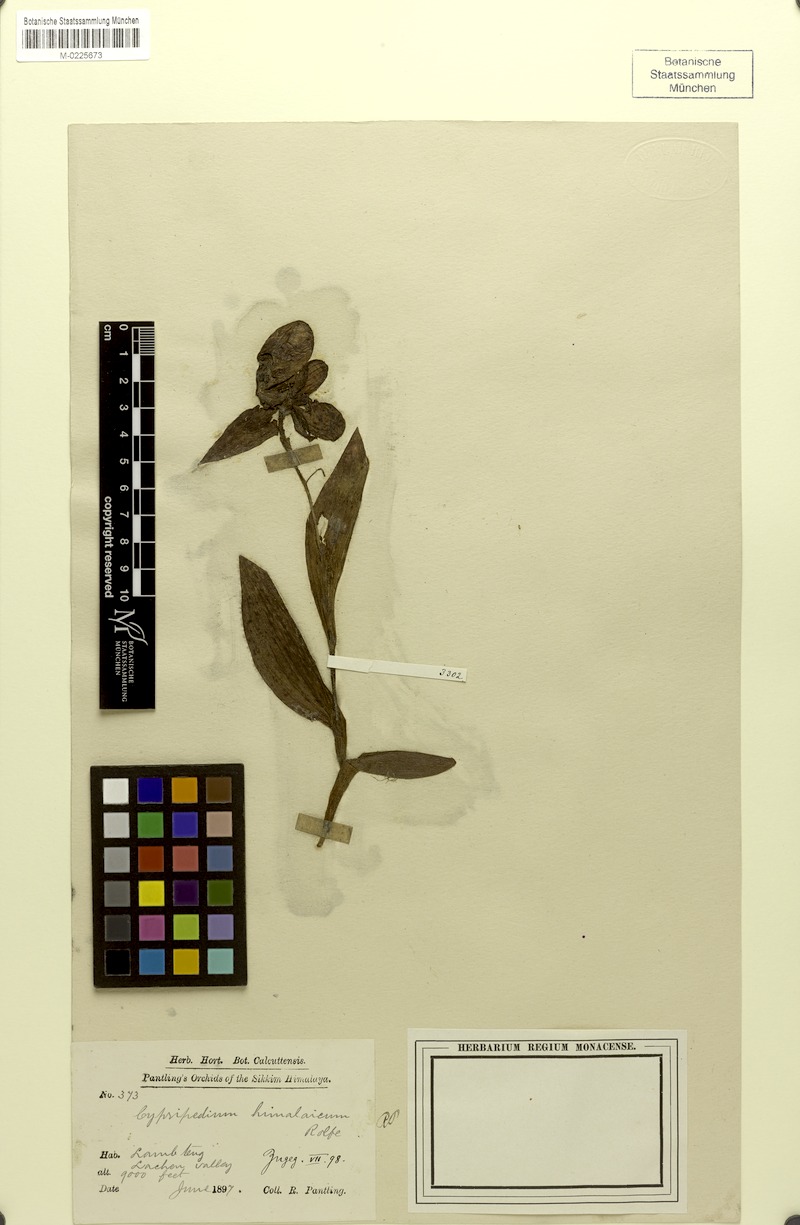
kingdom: Plantae
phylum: Tracheophyta
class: Liliopsida
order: Asparagales
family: Orchidaceae
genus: Cypripedium
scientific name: Cypripedium himalaicum
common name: Himalayan cypripedium
